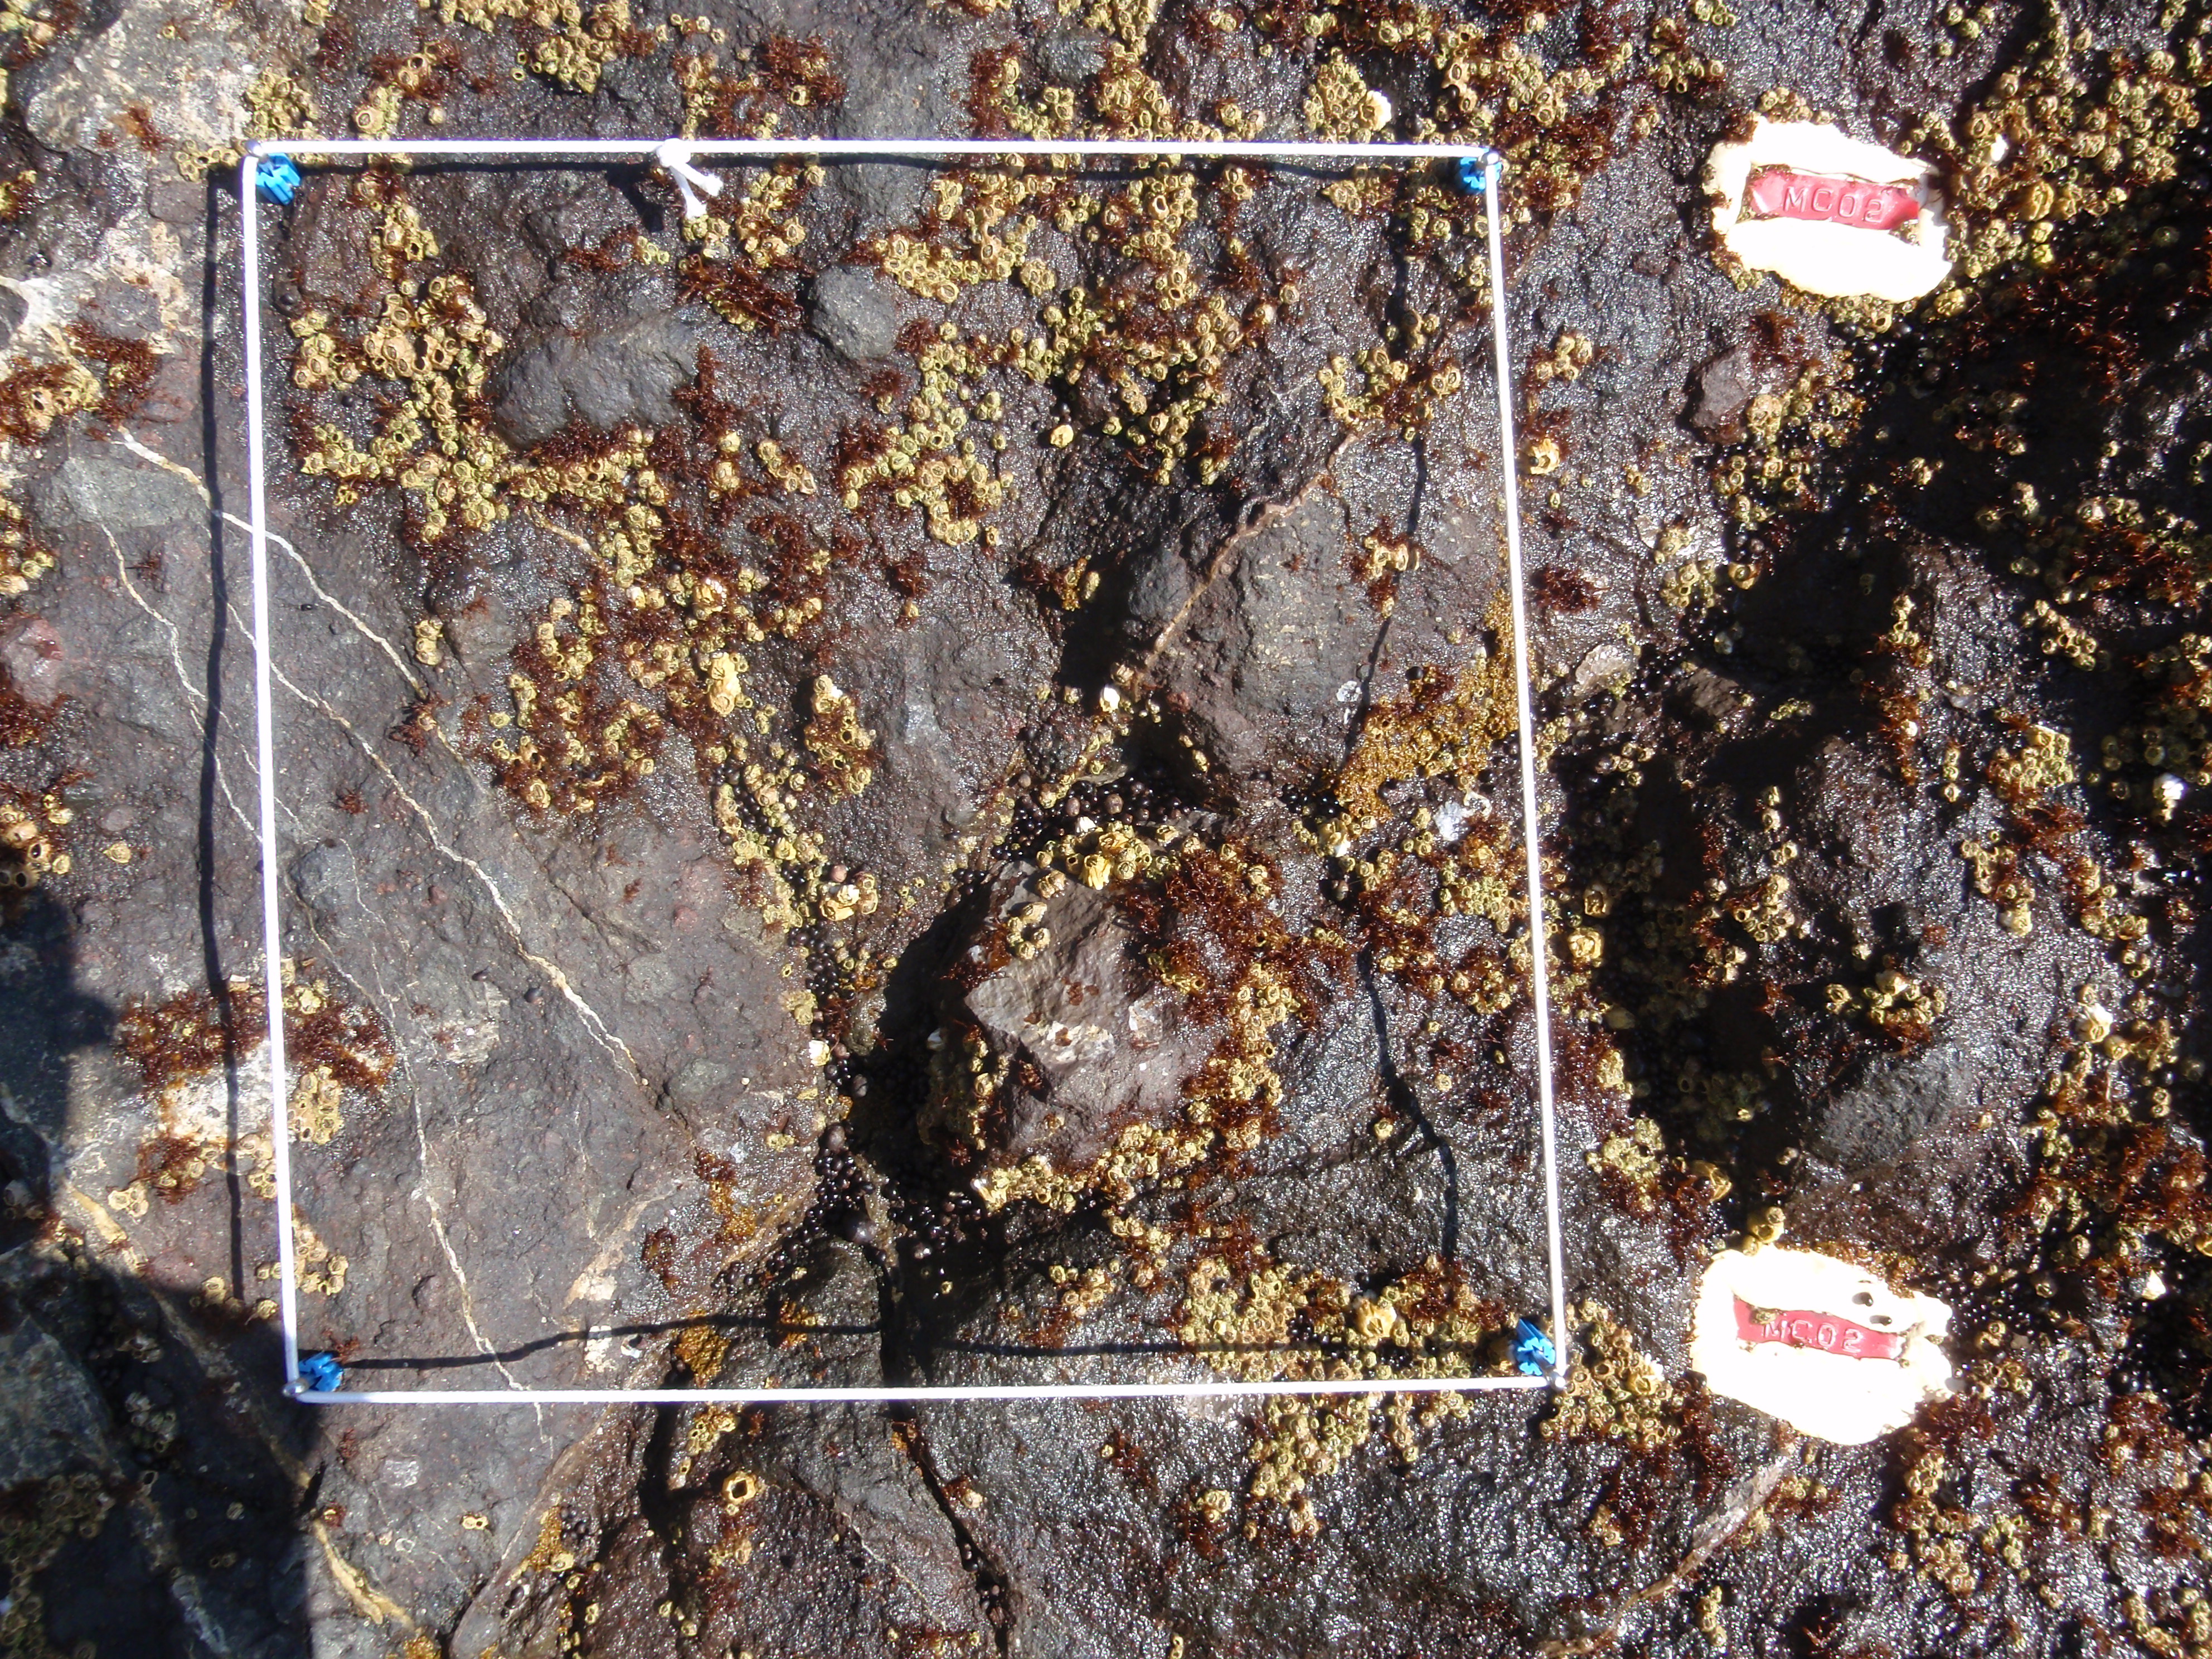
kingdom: Chromista
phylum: Ochrophyta
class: Phaeophyceae
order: Scytosiphonales
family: Scytosiphonaceae
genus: Analipus
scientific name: Analipus japonicus
